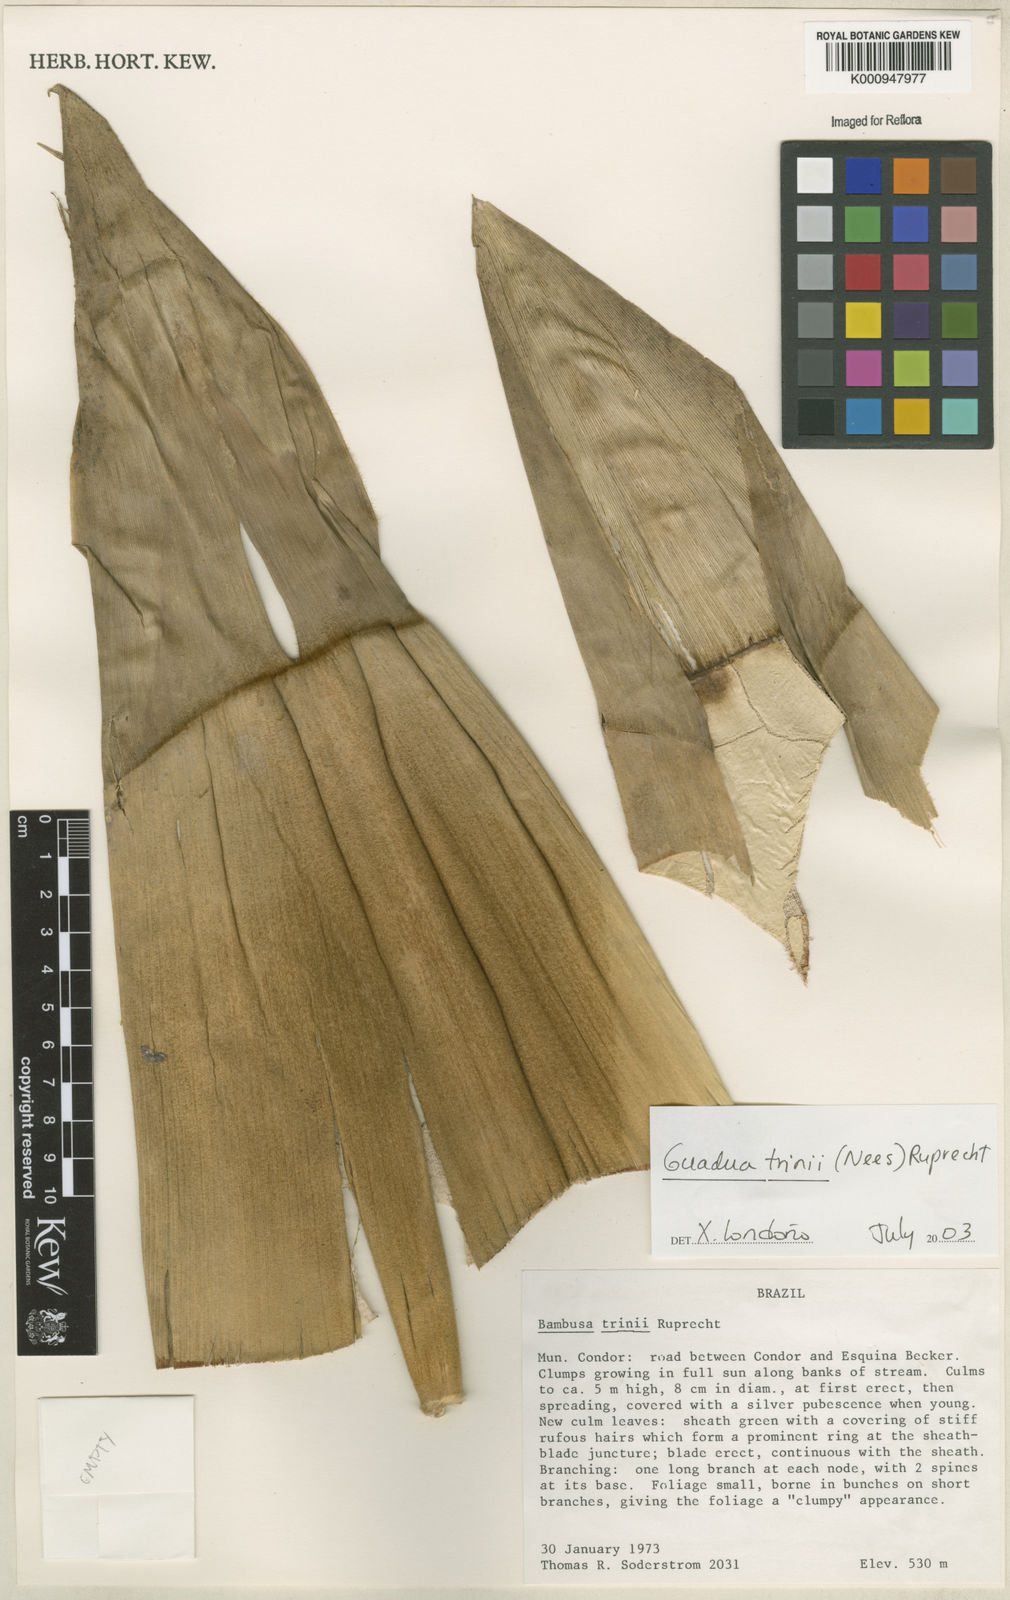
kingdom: Plantae
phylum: Tracheophyta
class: Liliopsida
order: Poales
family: Poaceae
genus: Guadua
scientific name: Guadua trinii
